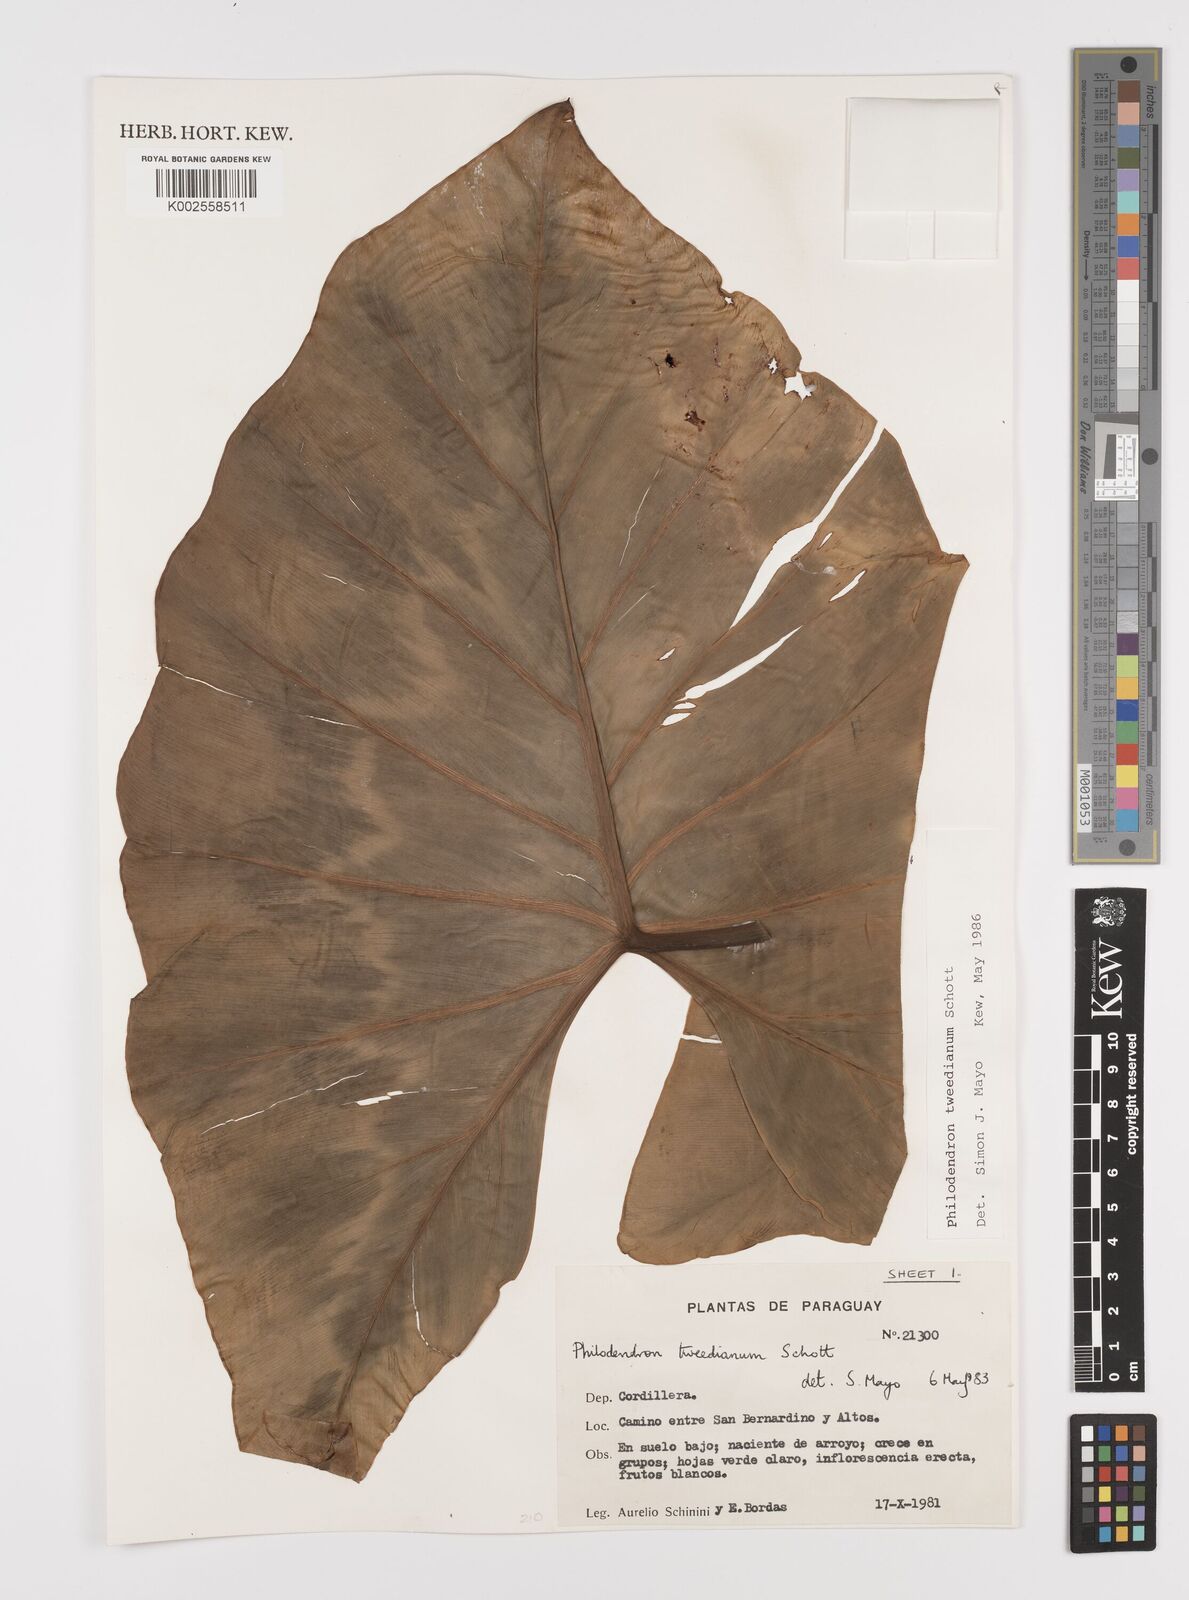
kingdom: Plantae
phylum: Tracheophyta
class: Liliopsida
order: Alismatales
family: Araceae
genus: Thaumatophyllum
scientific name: Thaumatophyllum tweedieanum
